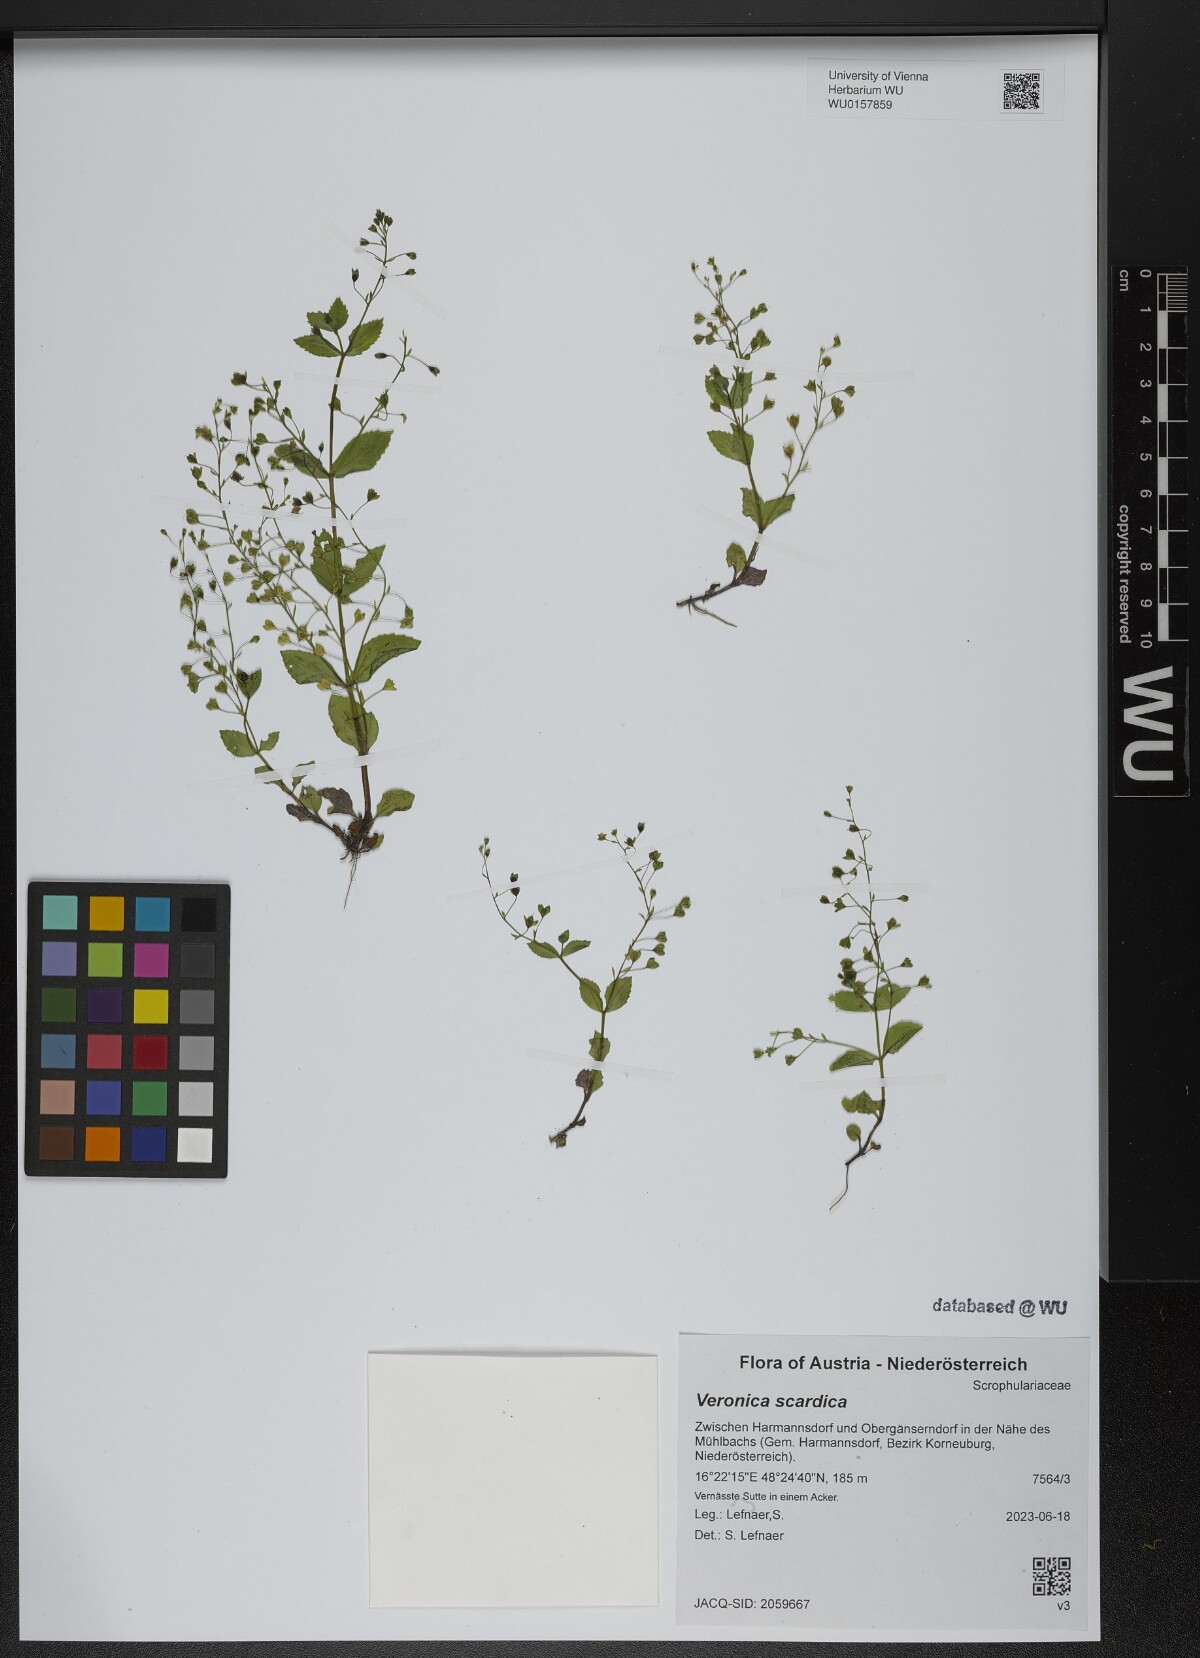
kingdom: Plantae
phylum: Tracheophyta
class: Magnoliopsida
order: Lamiales
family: Plantaginaceae
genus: Veronica
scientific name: Veronica scardica
